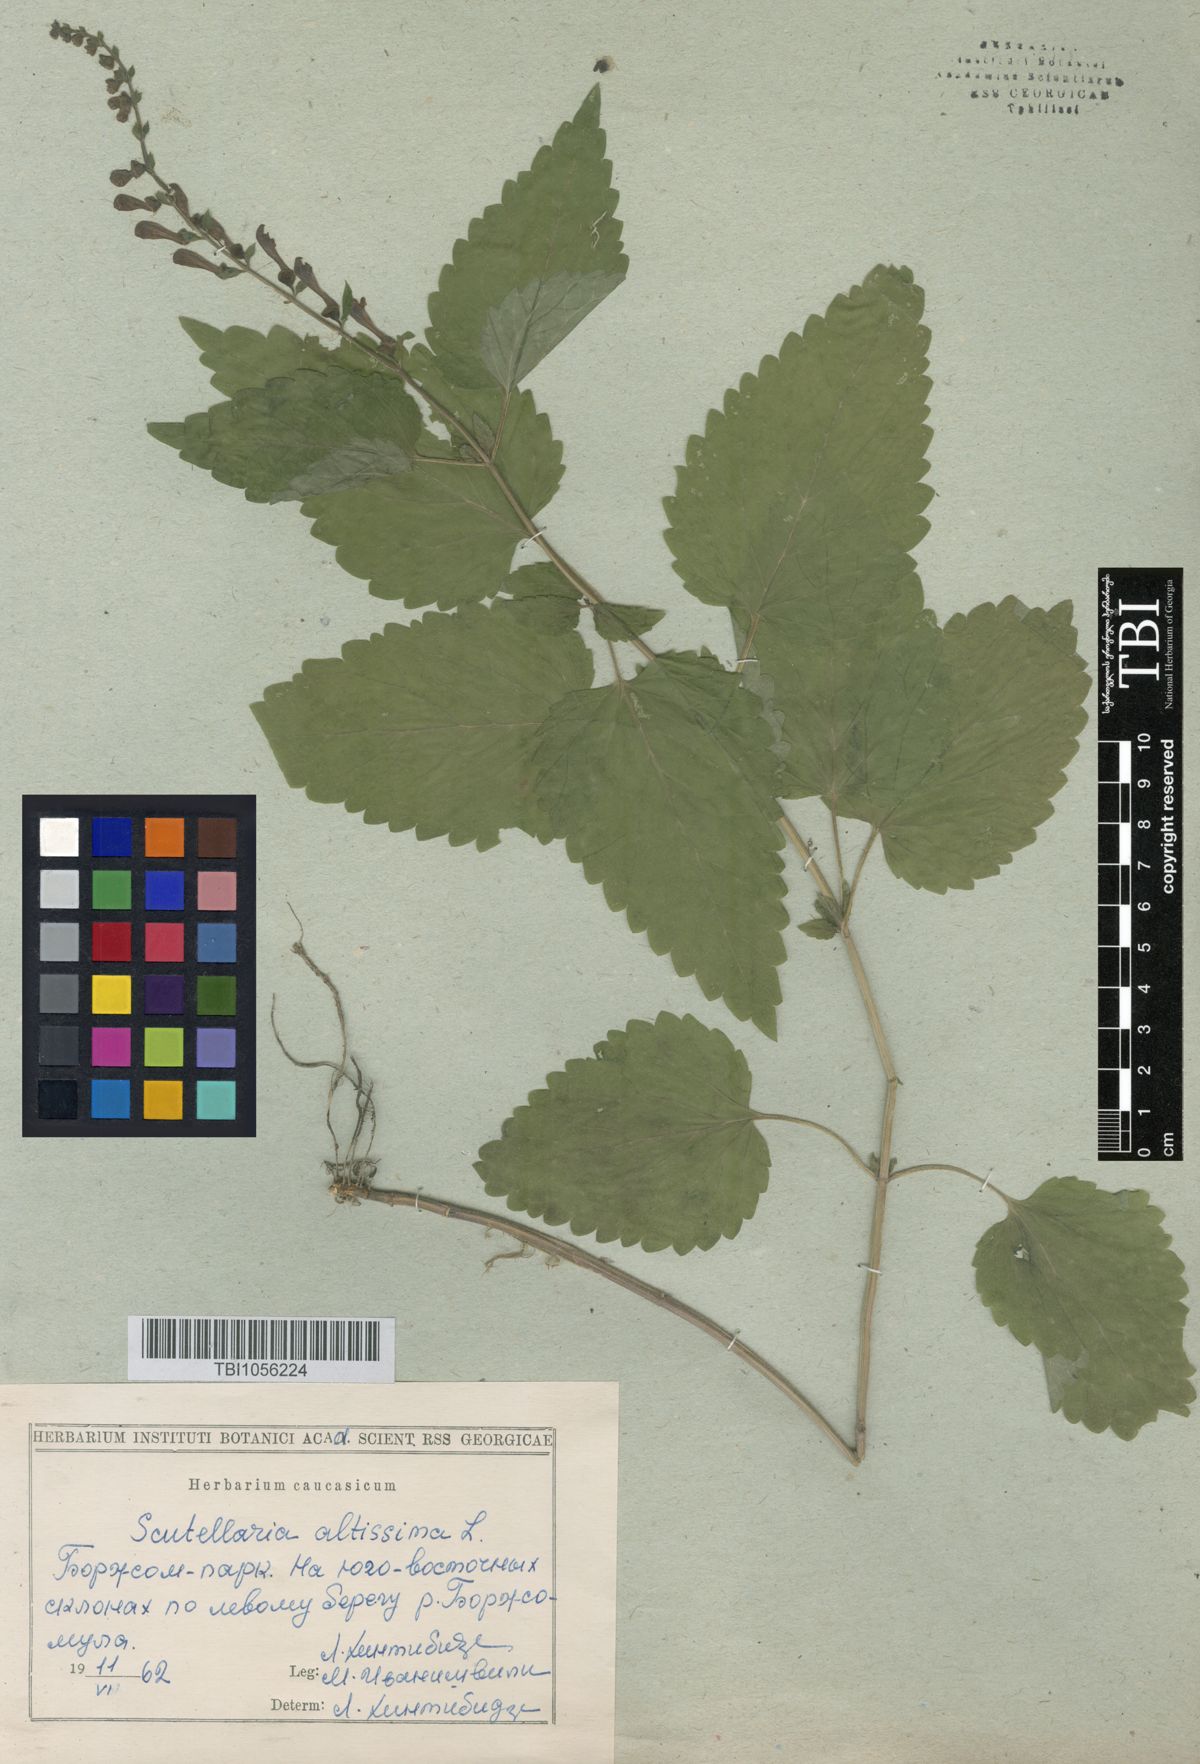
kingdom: Plantae
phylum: Tracheophyta
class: Magnoliopsida
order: Lamiales
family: Lamiaceae
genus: Scutellaria
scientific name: Scutellaria altissima
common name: Somerset skullcap
